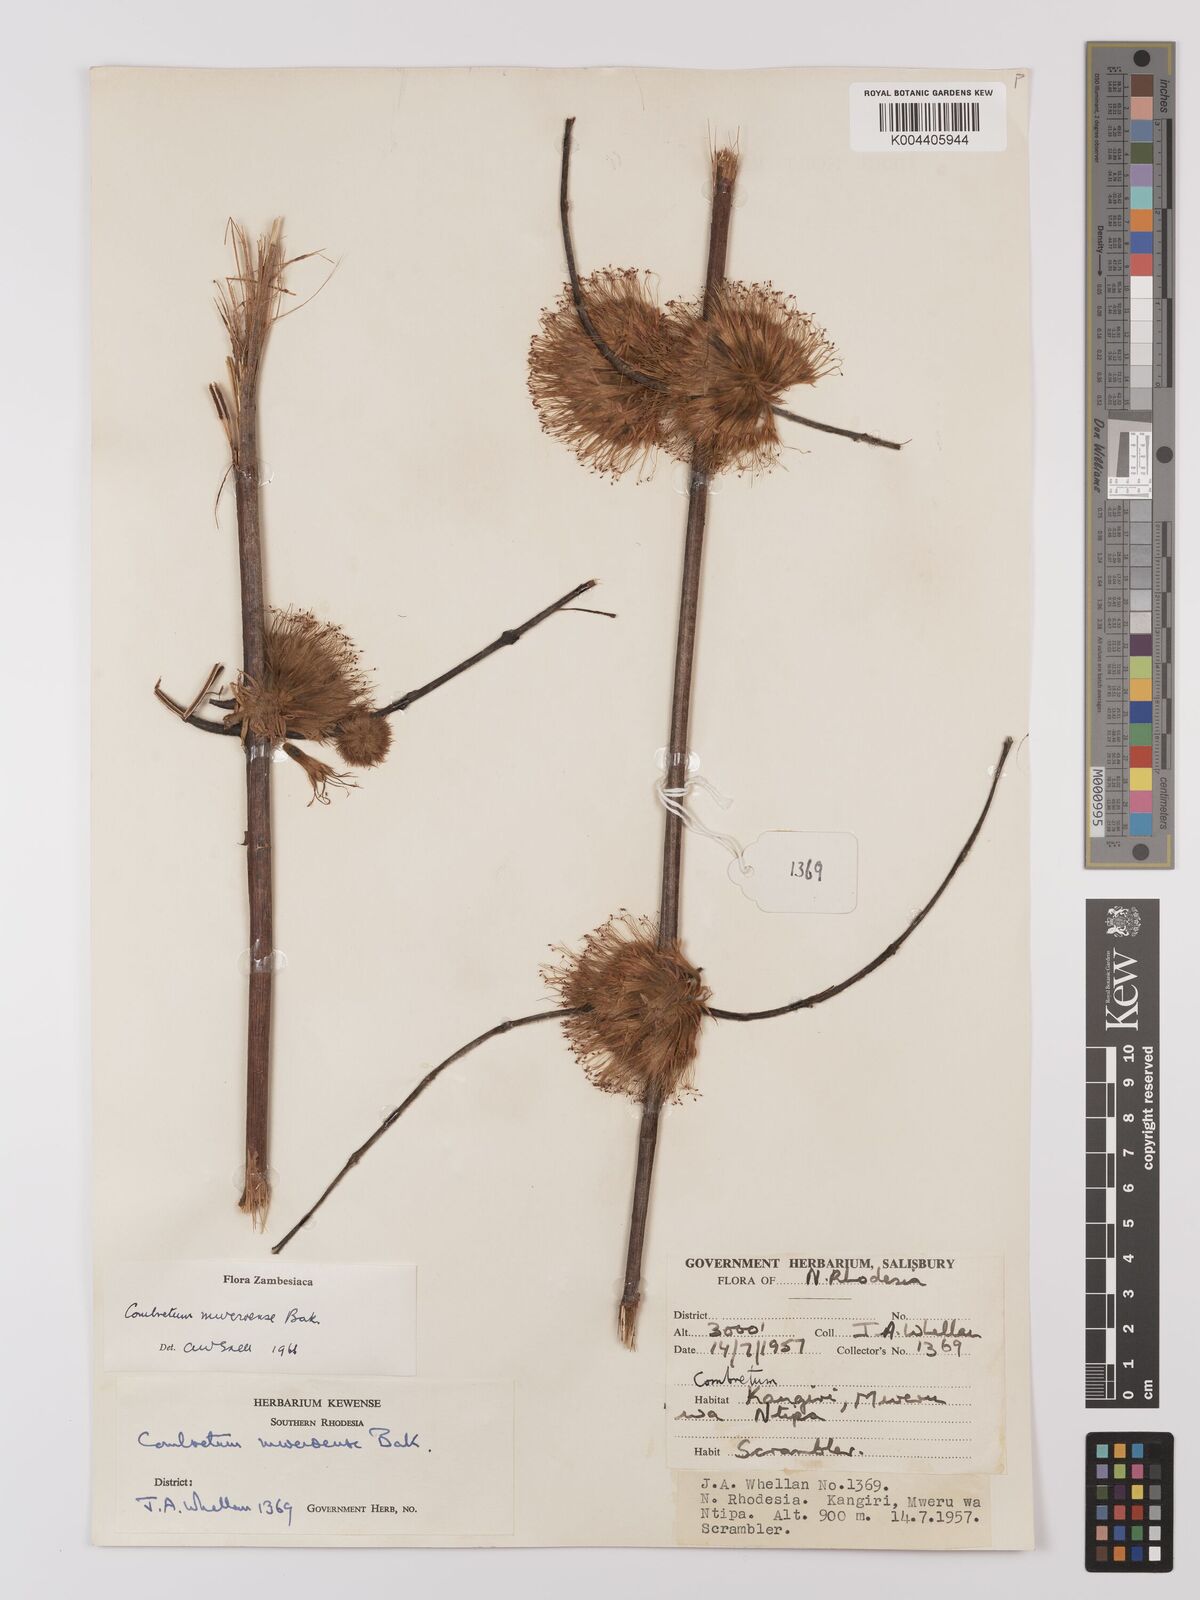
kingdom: Plantae
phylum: Tracheophyta
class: Magnoliopsida
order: Myrtales
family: Combretaceae
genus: Combretum
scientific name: Combretum mweroense
